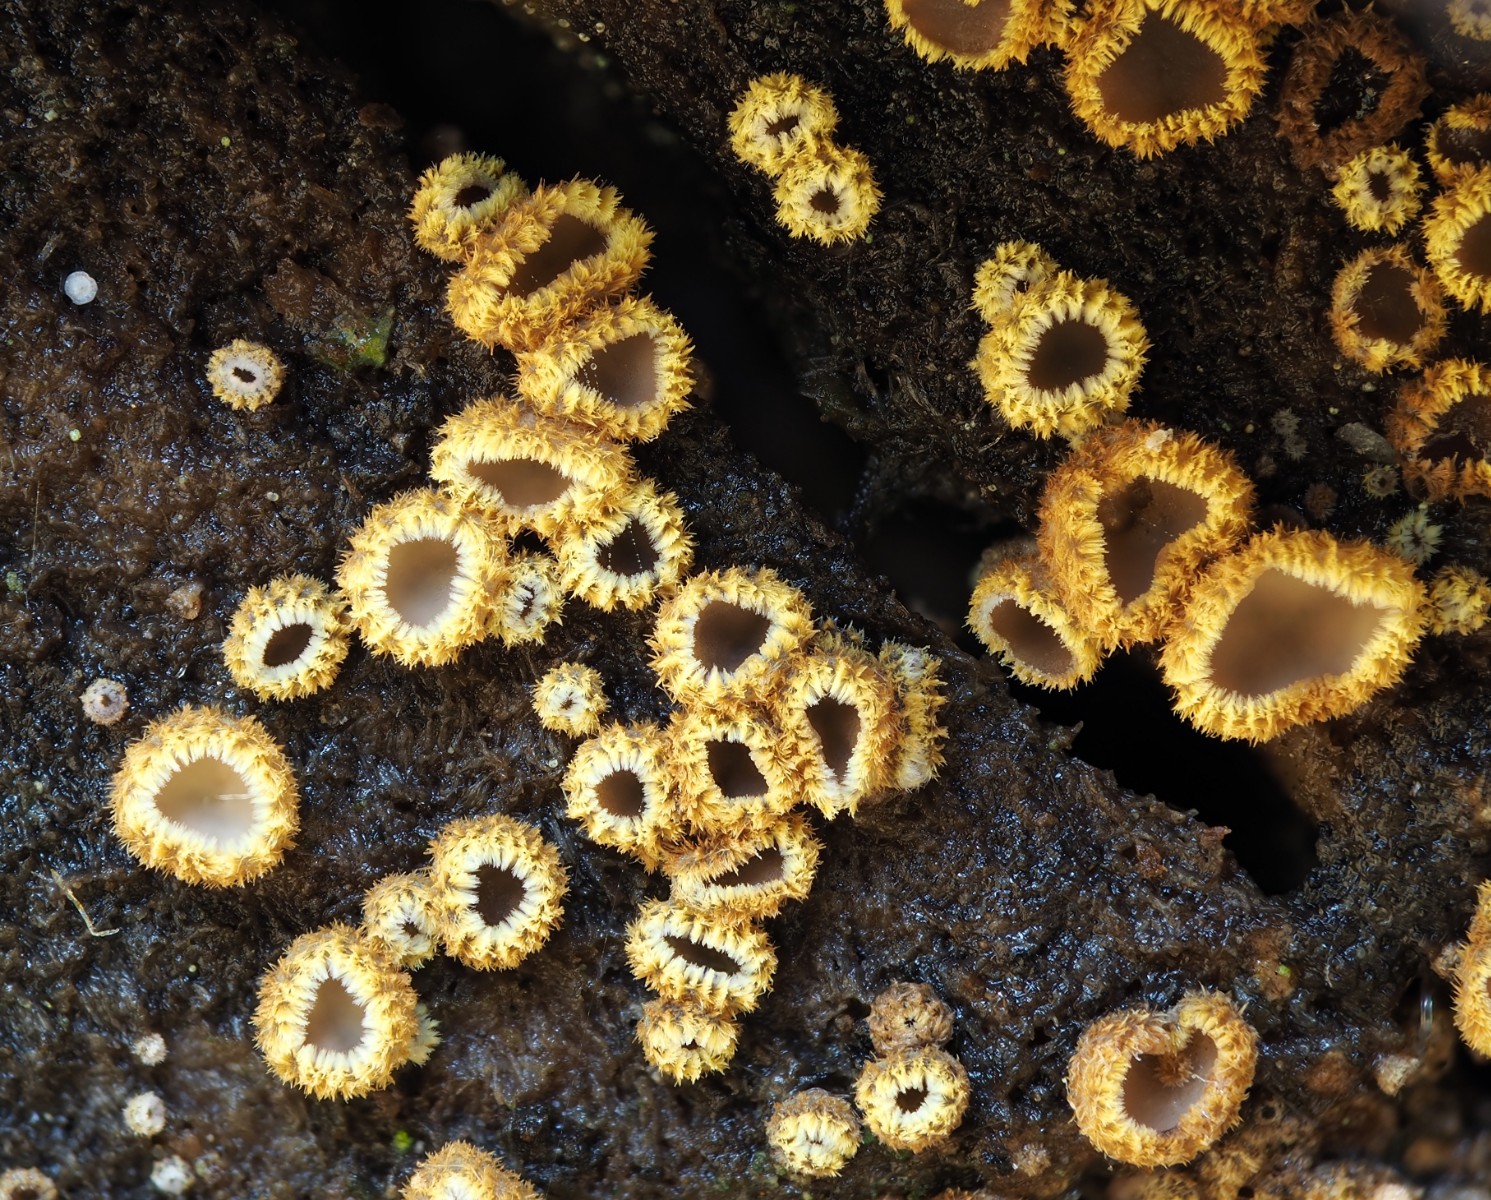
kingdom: Fungi
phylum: Ascomycota
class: Leotiomycetes
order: Helotiales
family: Lachnaceae
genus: Trichopeziza
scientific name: Trichopeziza subsulphurea
